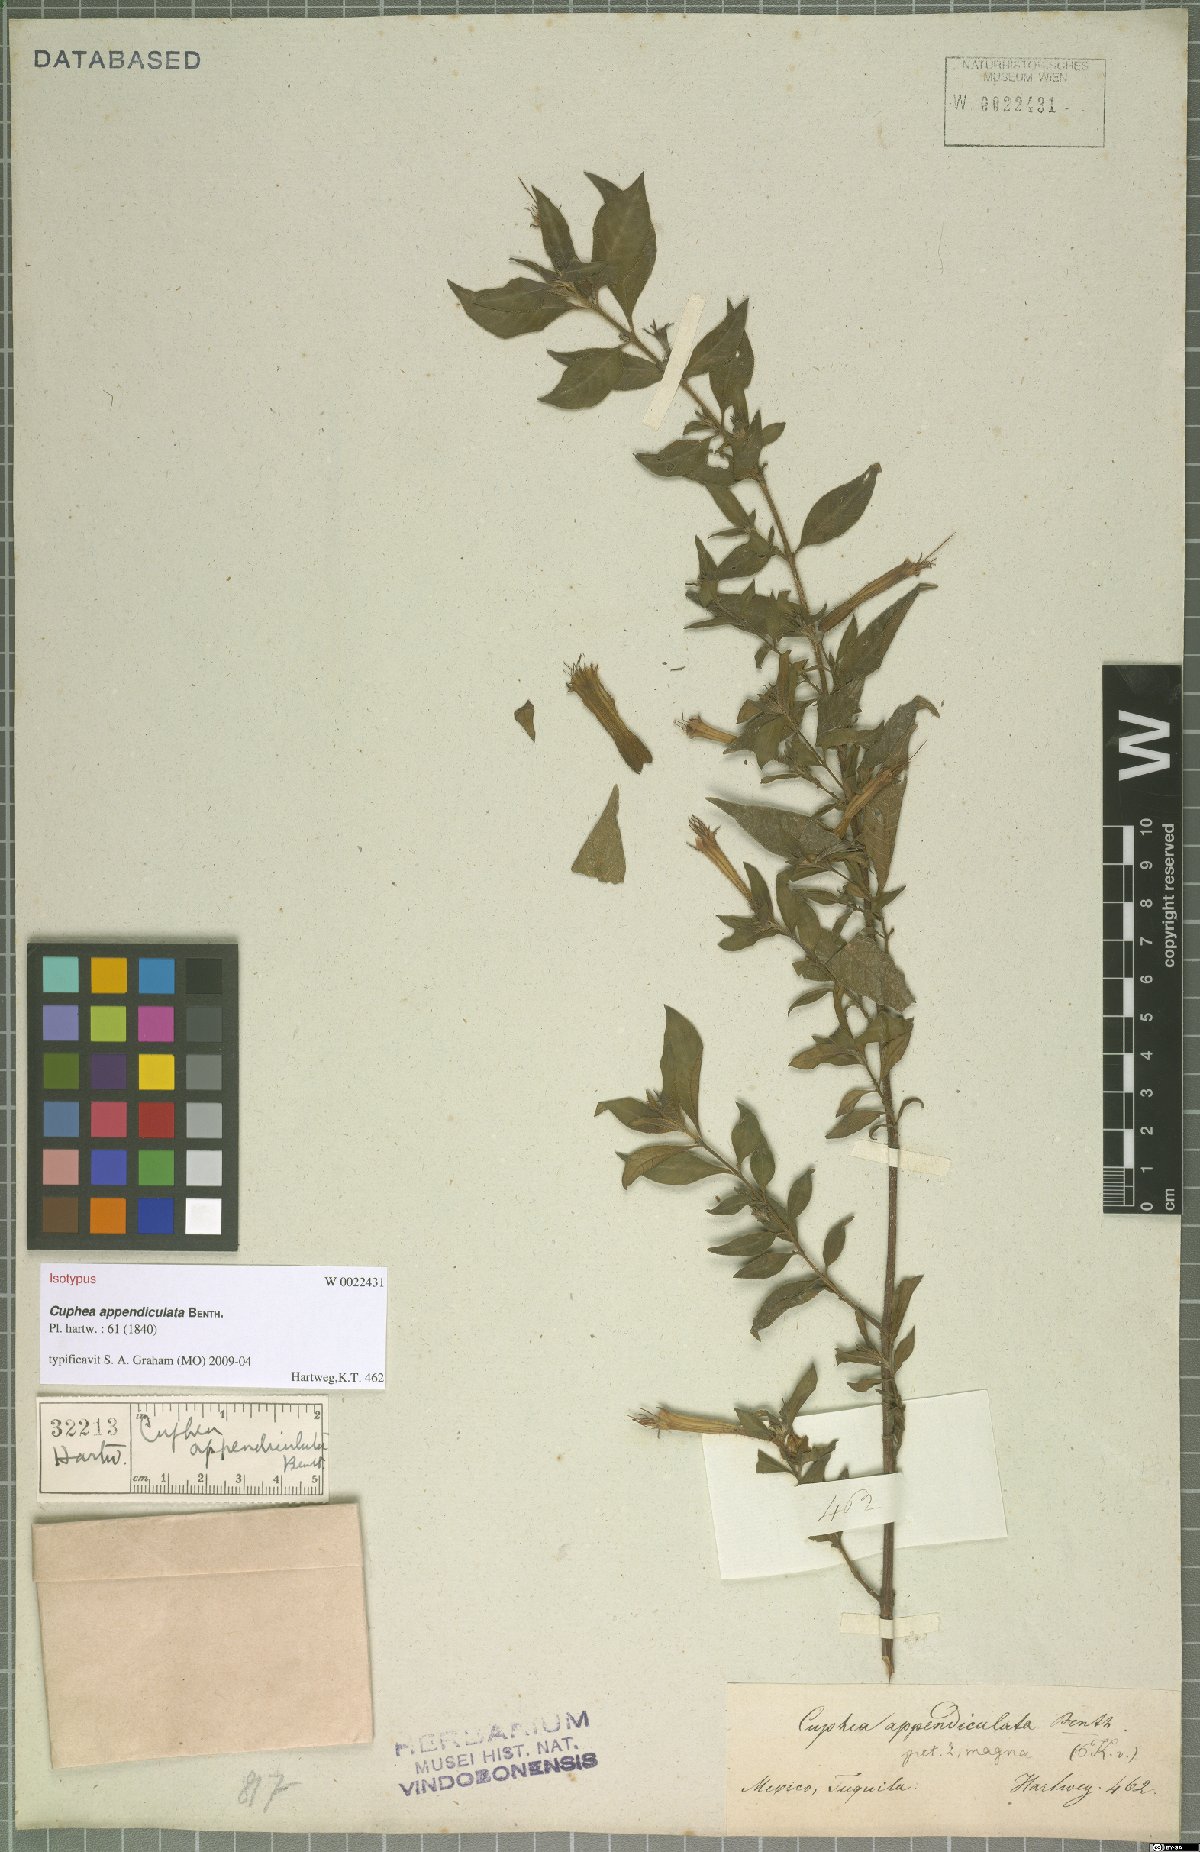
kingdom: Plantae
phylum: Tracheophyta
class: Magnoliopsida
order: Myrtales
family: Lythraceae
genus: Cuphea
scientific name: Cuphea appendiculata
